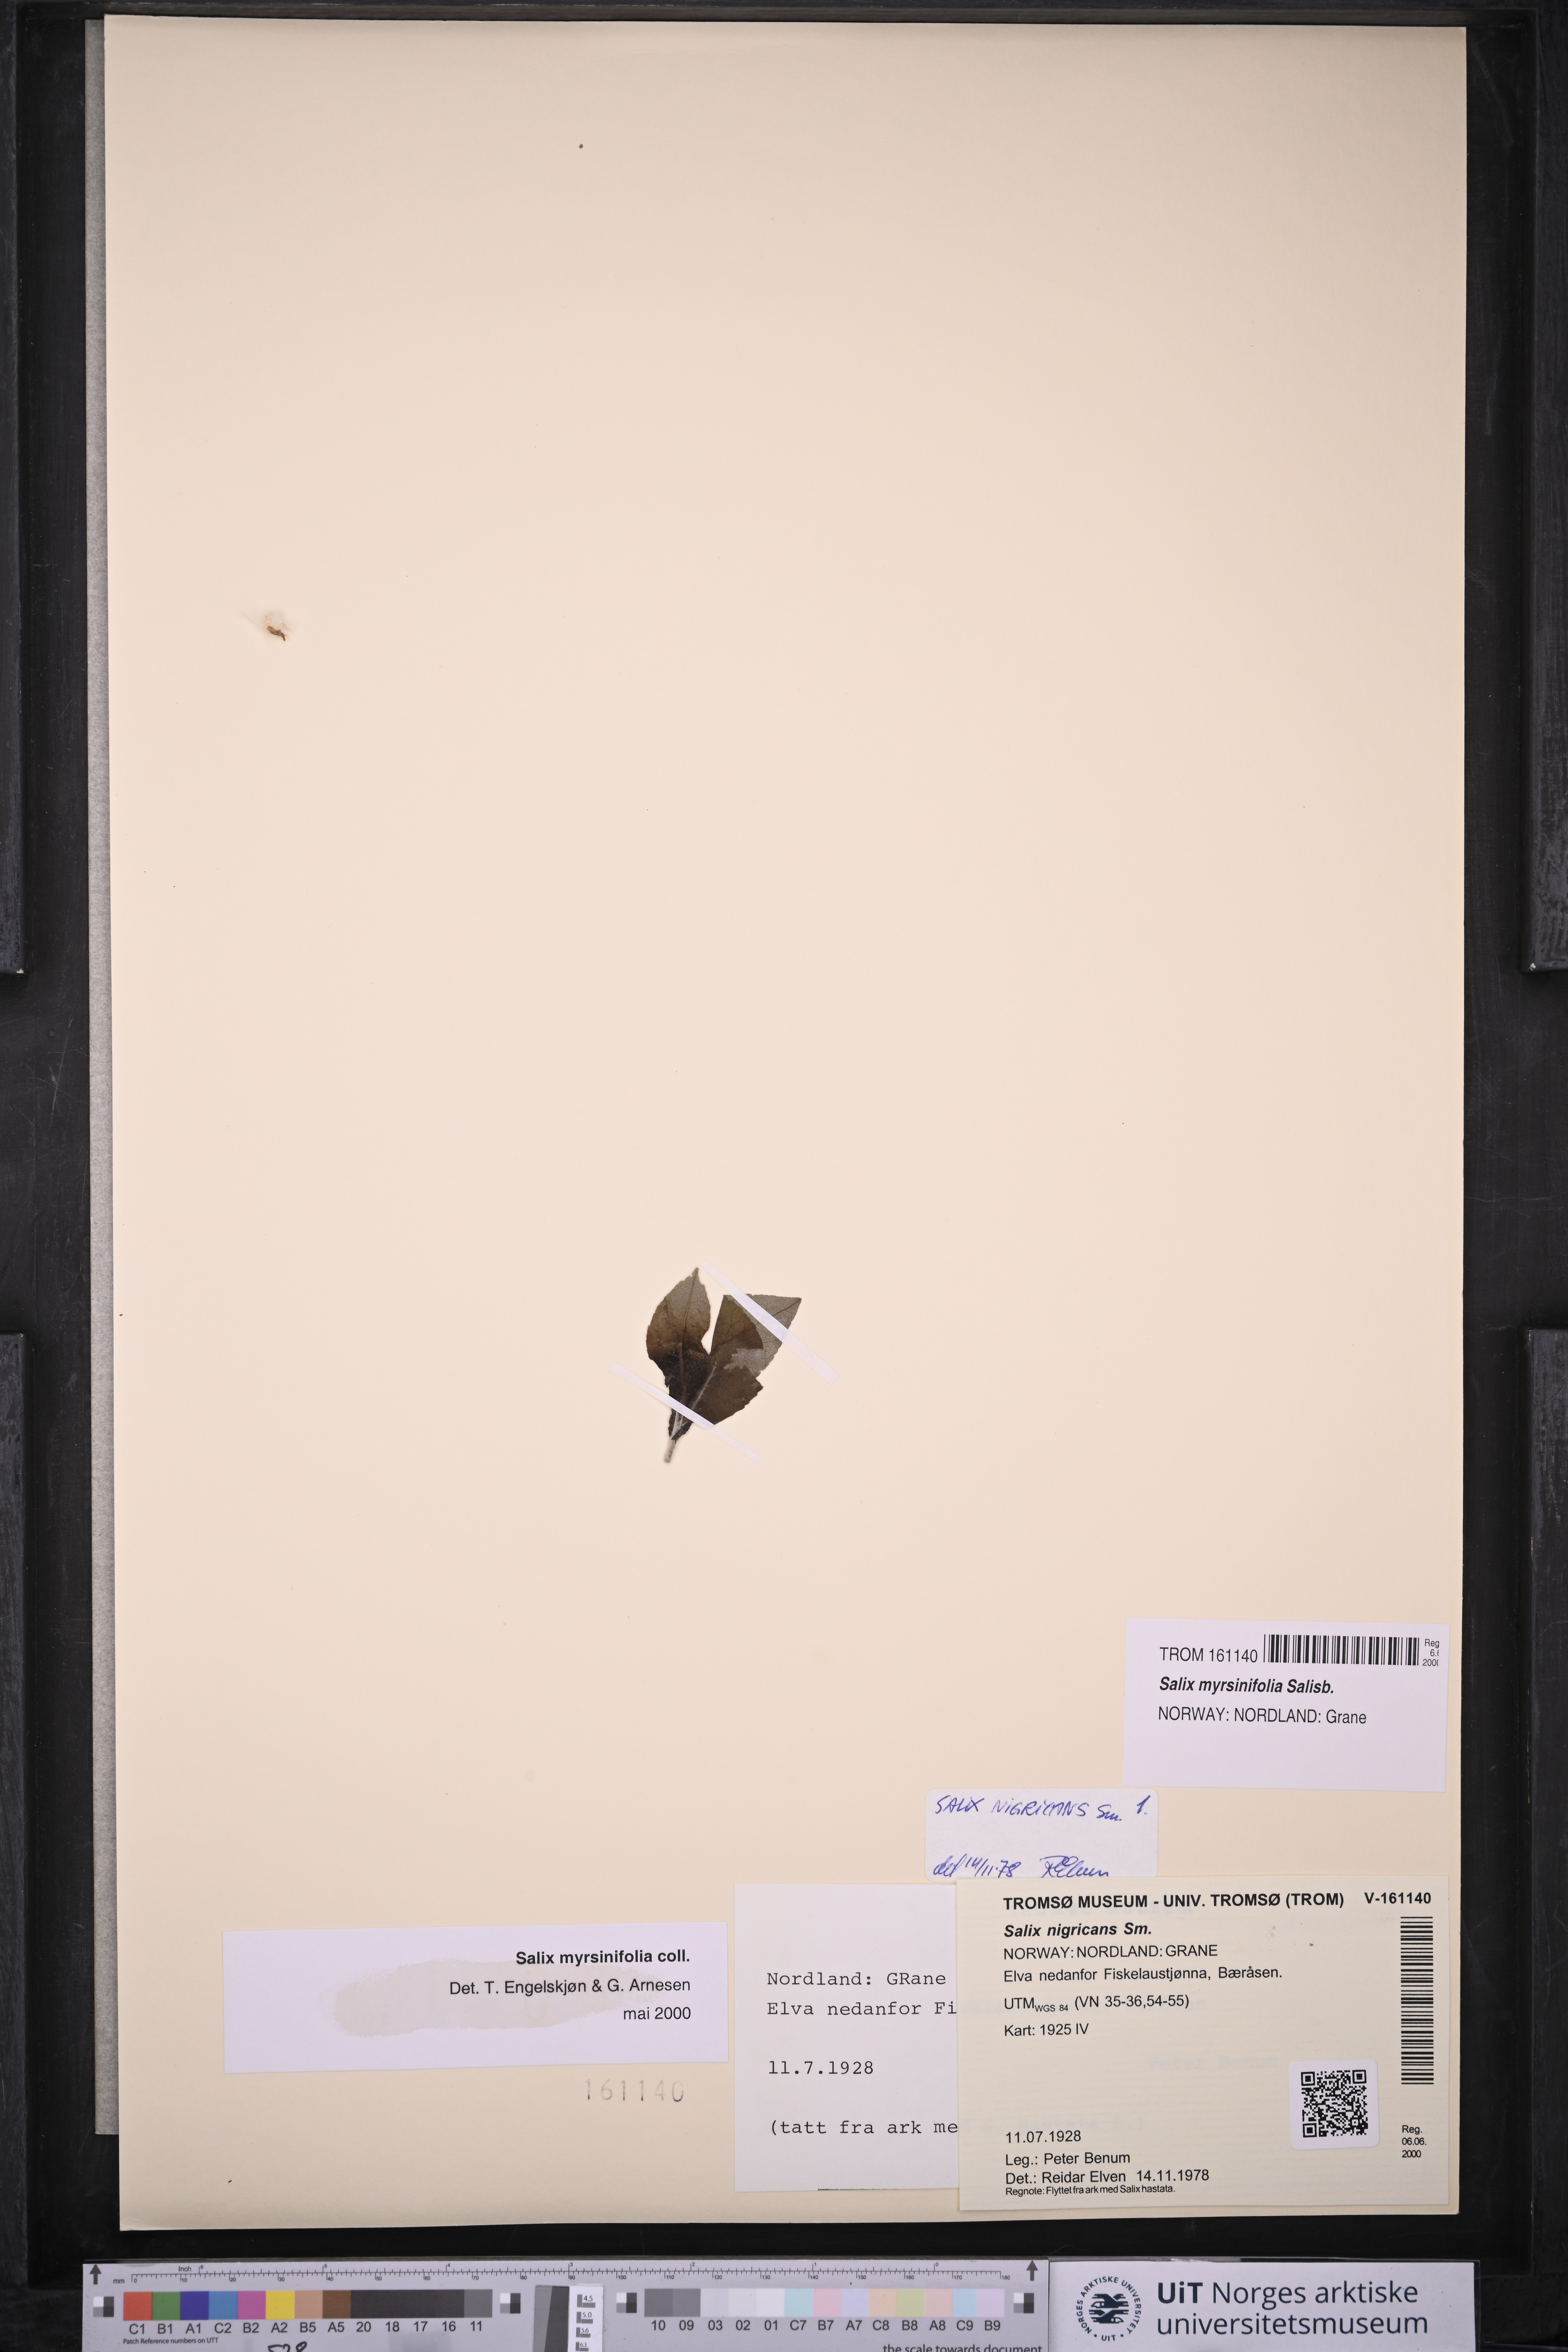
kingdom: Plantae
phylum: Tracheophyta
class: Magnoliopsida
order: Malpighiales
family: Salicaceae
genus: Salix
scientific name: Salix myrsinifolia
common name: Dark-leaved willow
